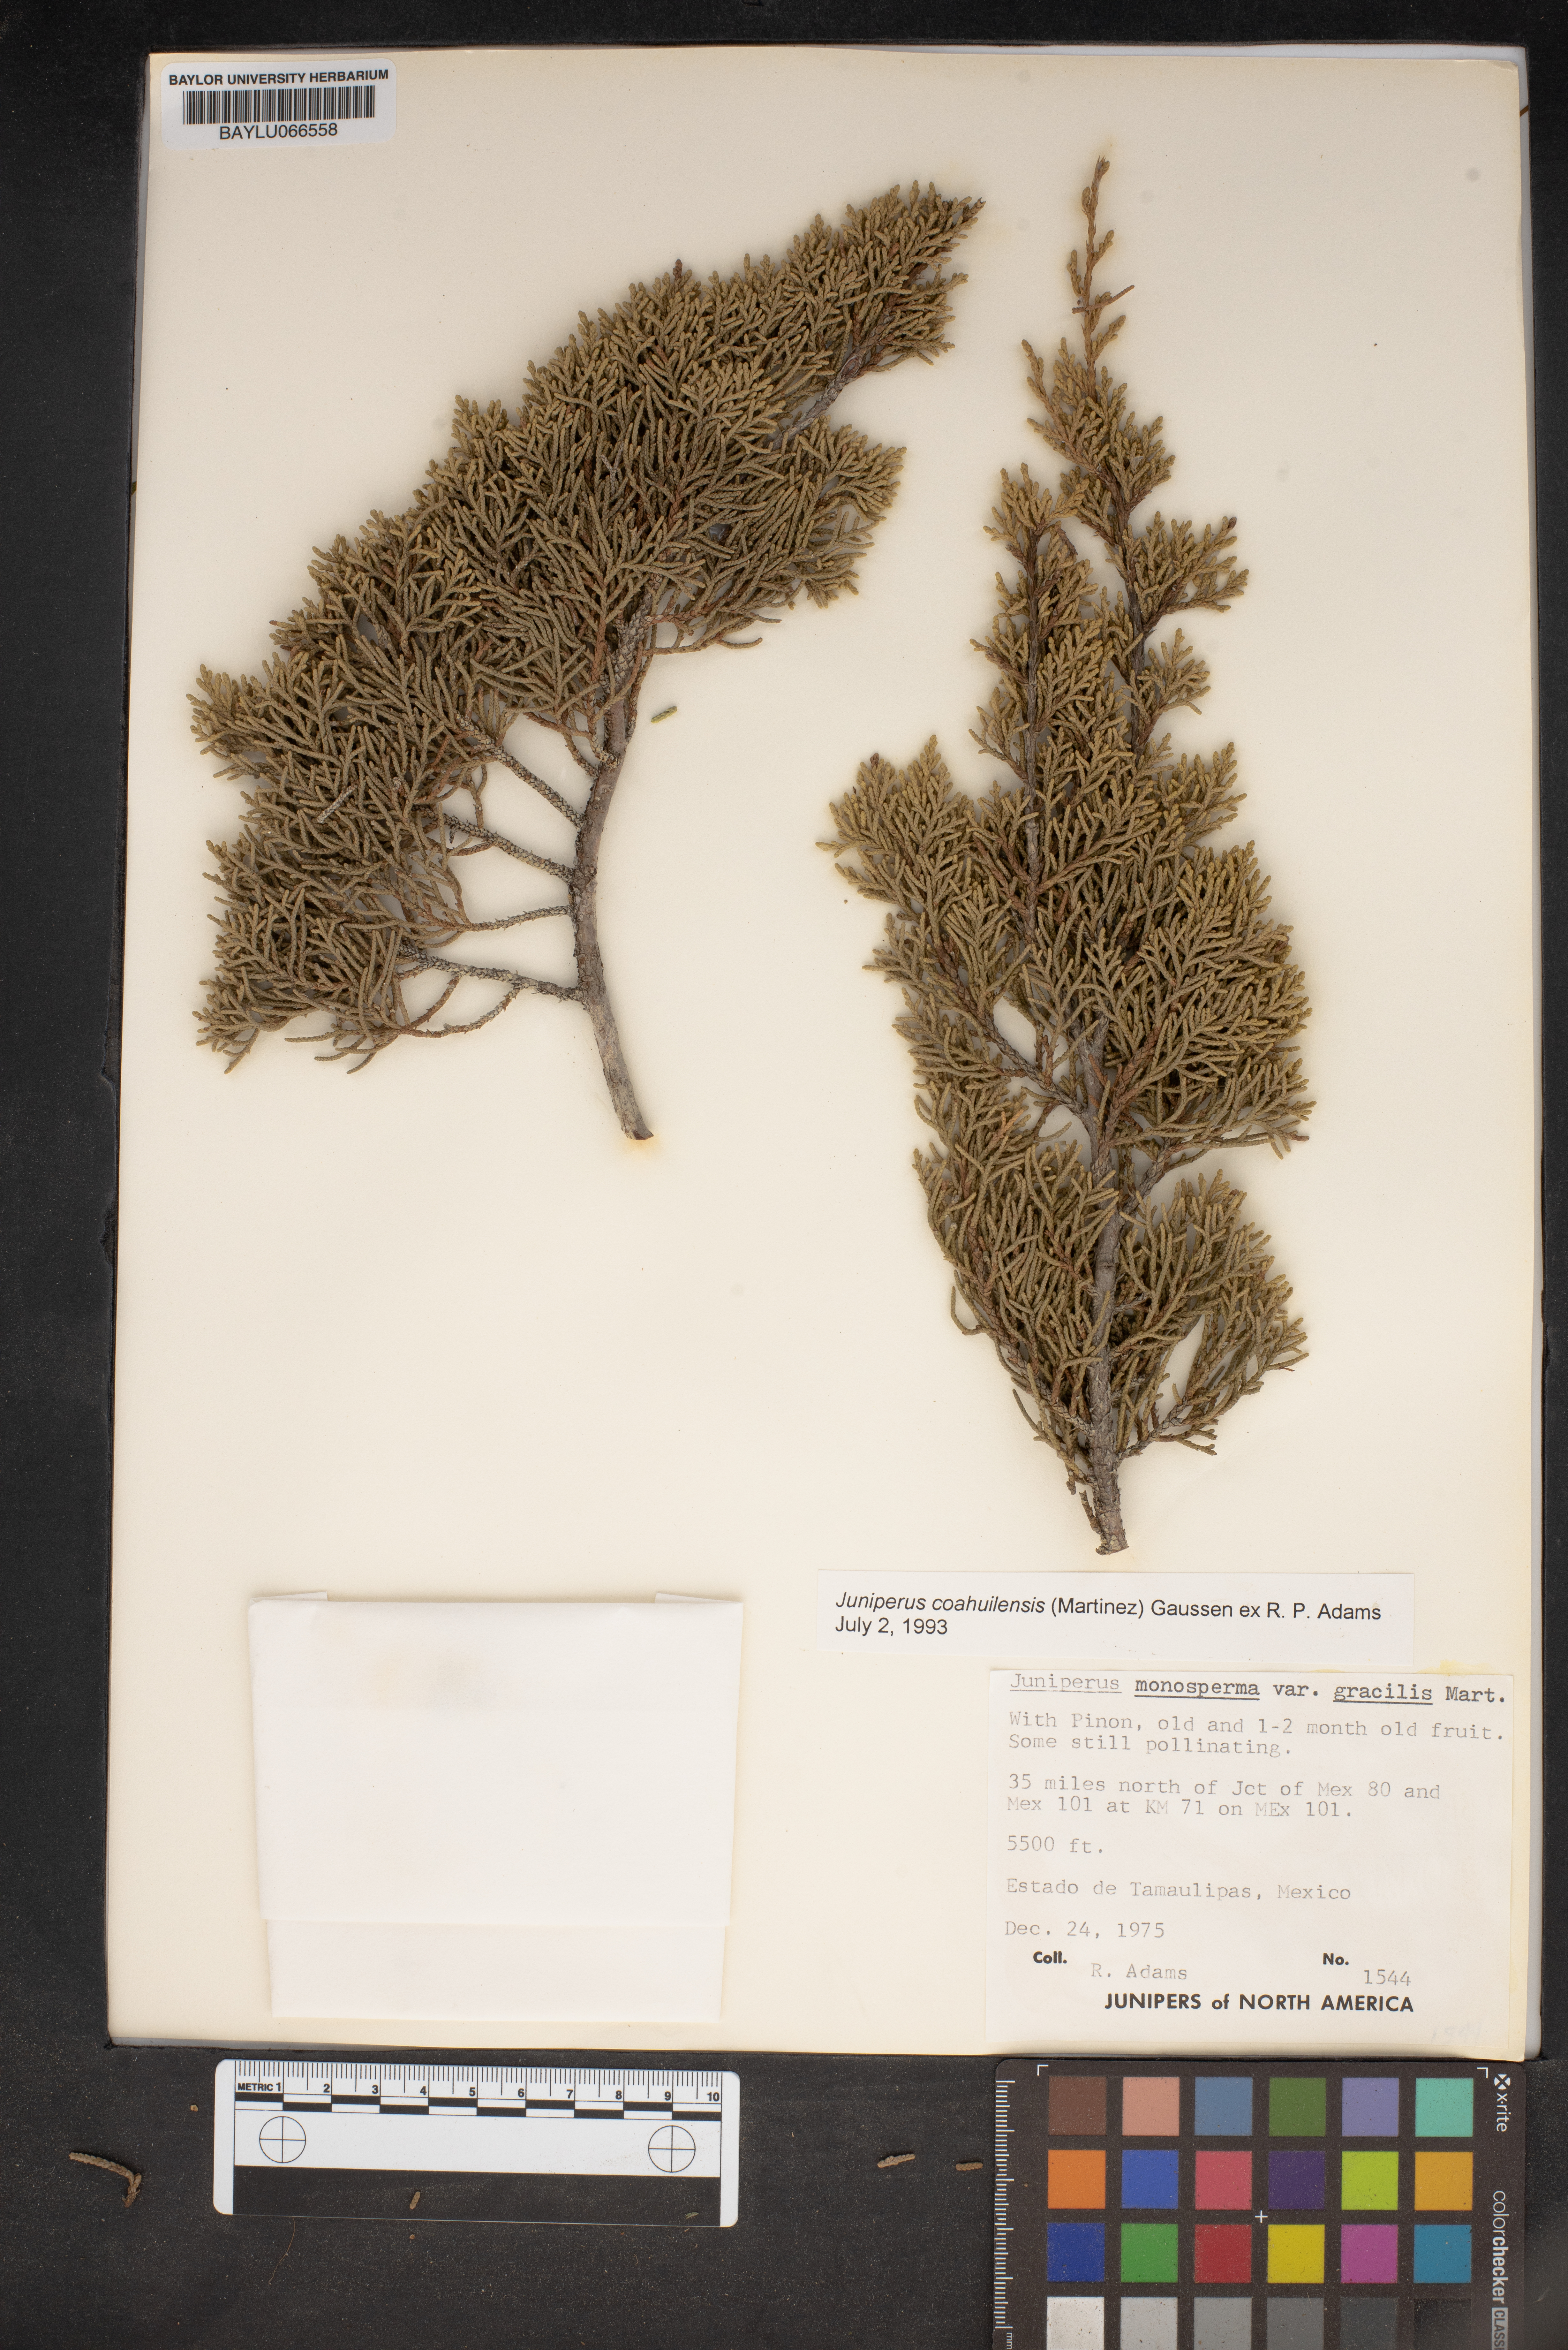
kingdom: Plantae
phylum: Tracheophyta
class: Pinopsida
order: Pinales
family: Cupressaceae
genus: Juniperus
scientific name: Juniperus coahuilensis
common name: Roseberry
